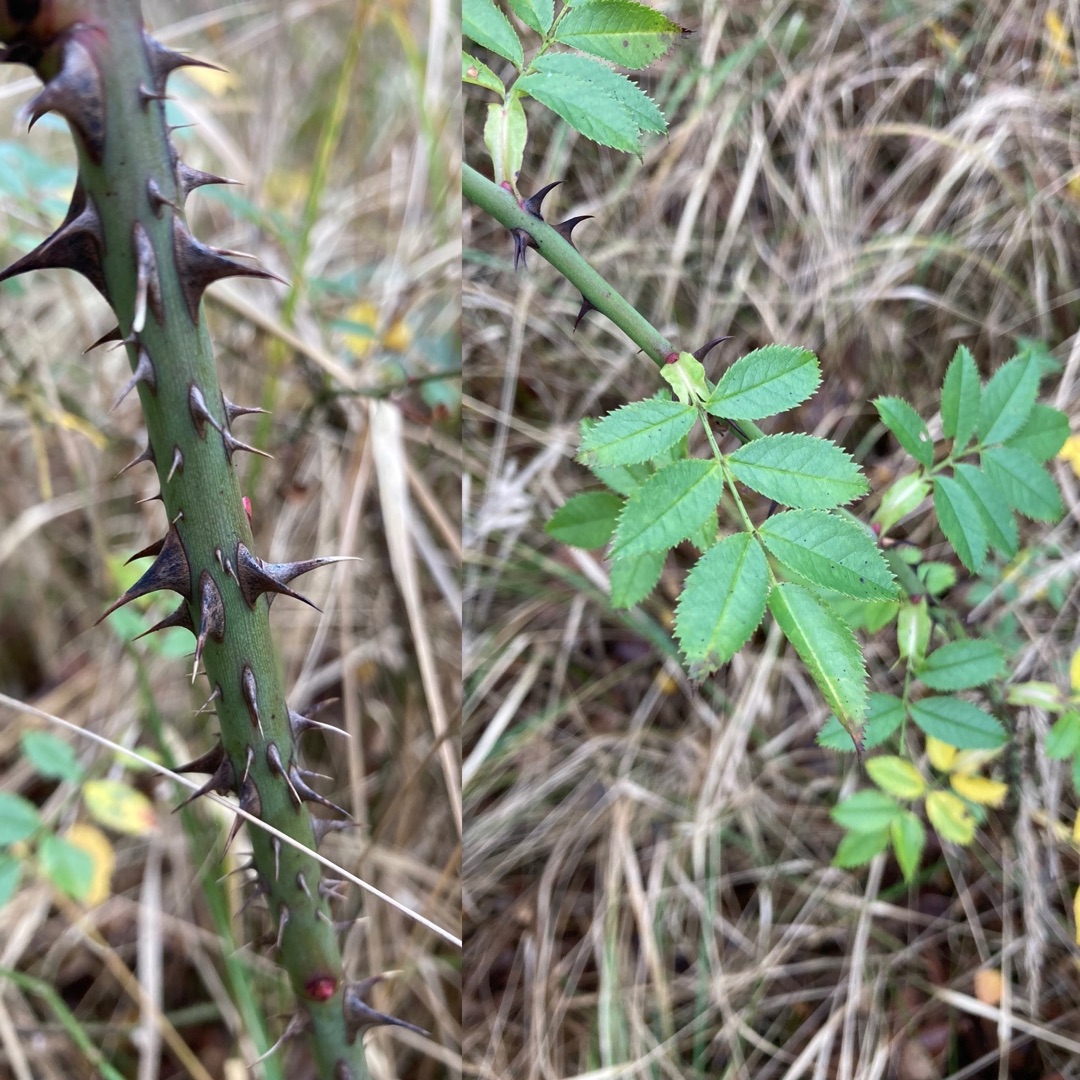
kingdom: Plantae
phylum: Tracheophyta
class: Magnoliopsida
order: Rosales
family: Rosaceae
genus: Rosa
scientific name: Rosa canina
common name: Hunde-rose
